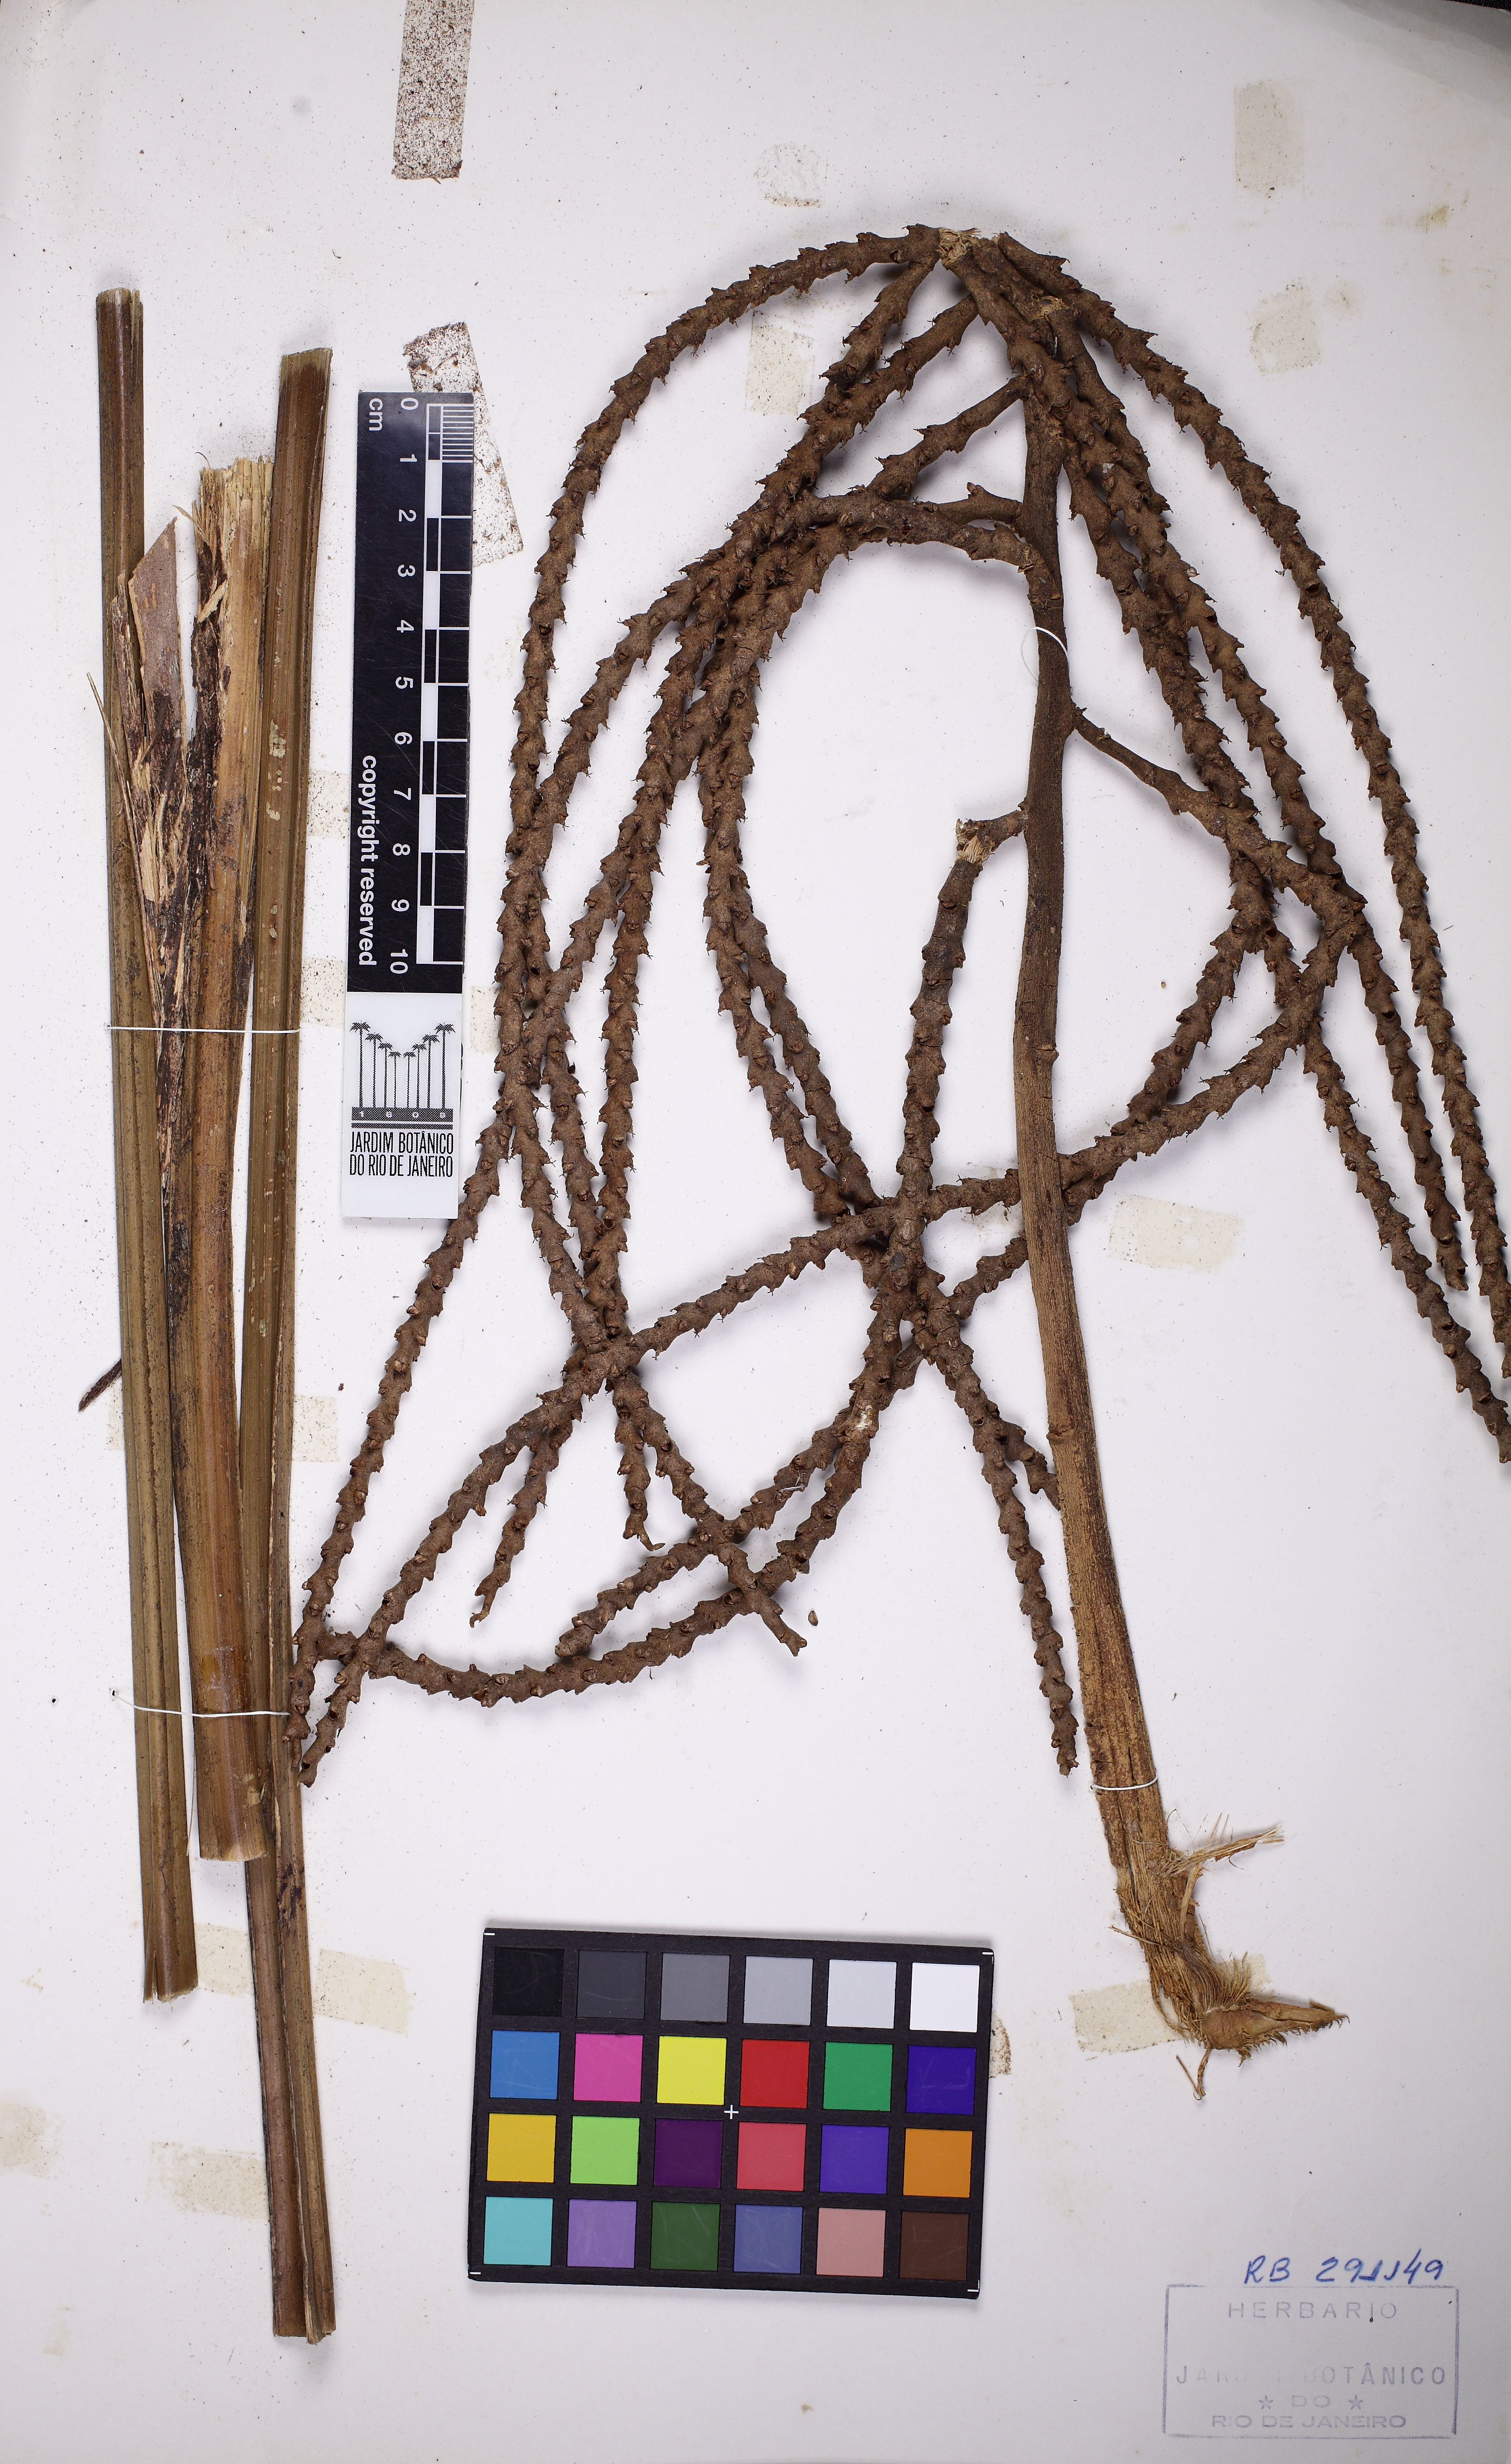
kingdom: Plantae
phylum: Tracheophyta
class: Liliopsida
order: Arecales
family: Arecaceae
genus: Geonoma
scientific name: Geonoma pohliana
